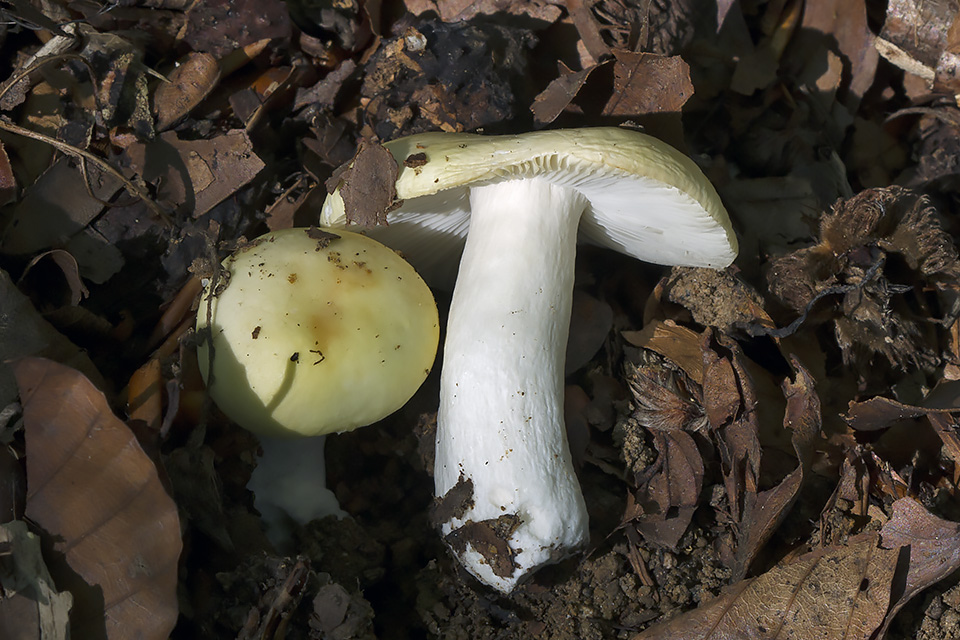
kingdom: Fungi
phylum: Basidiomycota
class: Agaricomycetes
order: Russulales
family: Russulaceae
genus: Russula
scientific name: Russula violeipes
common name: ferskengul skørhat
